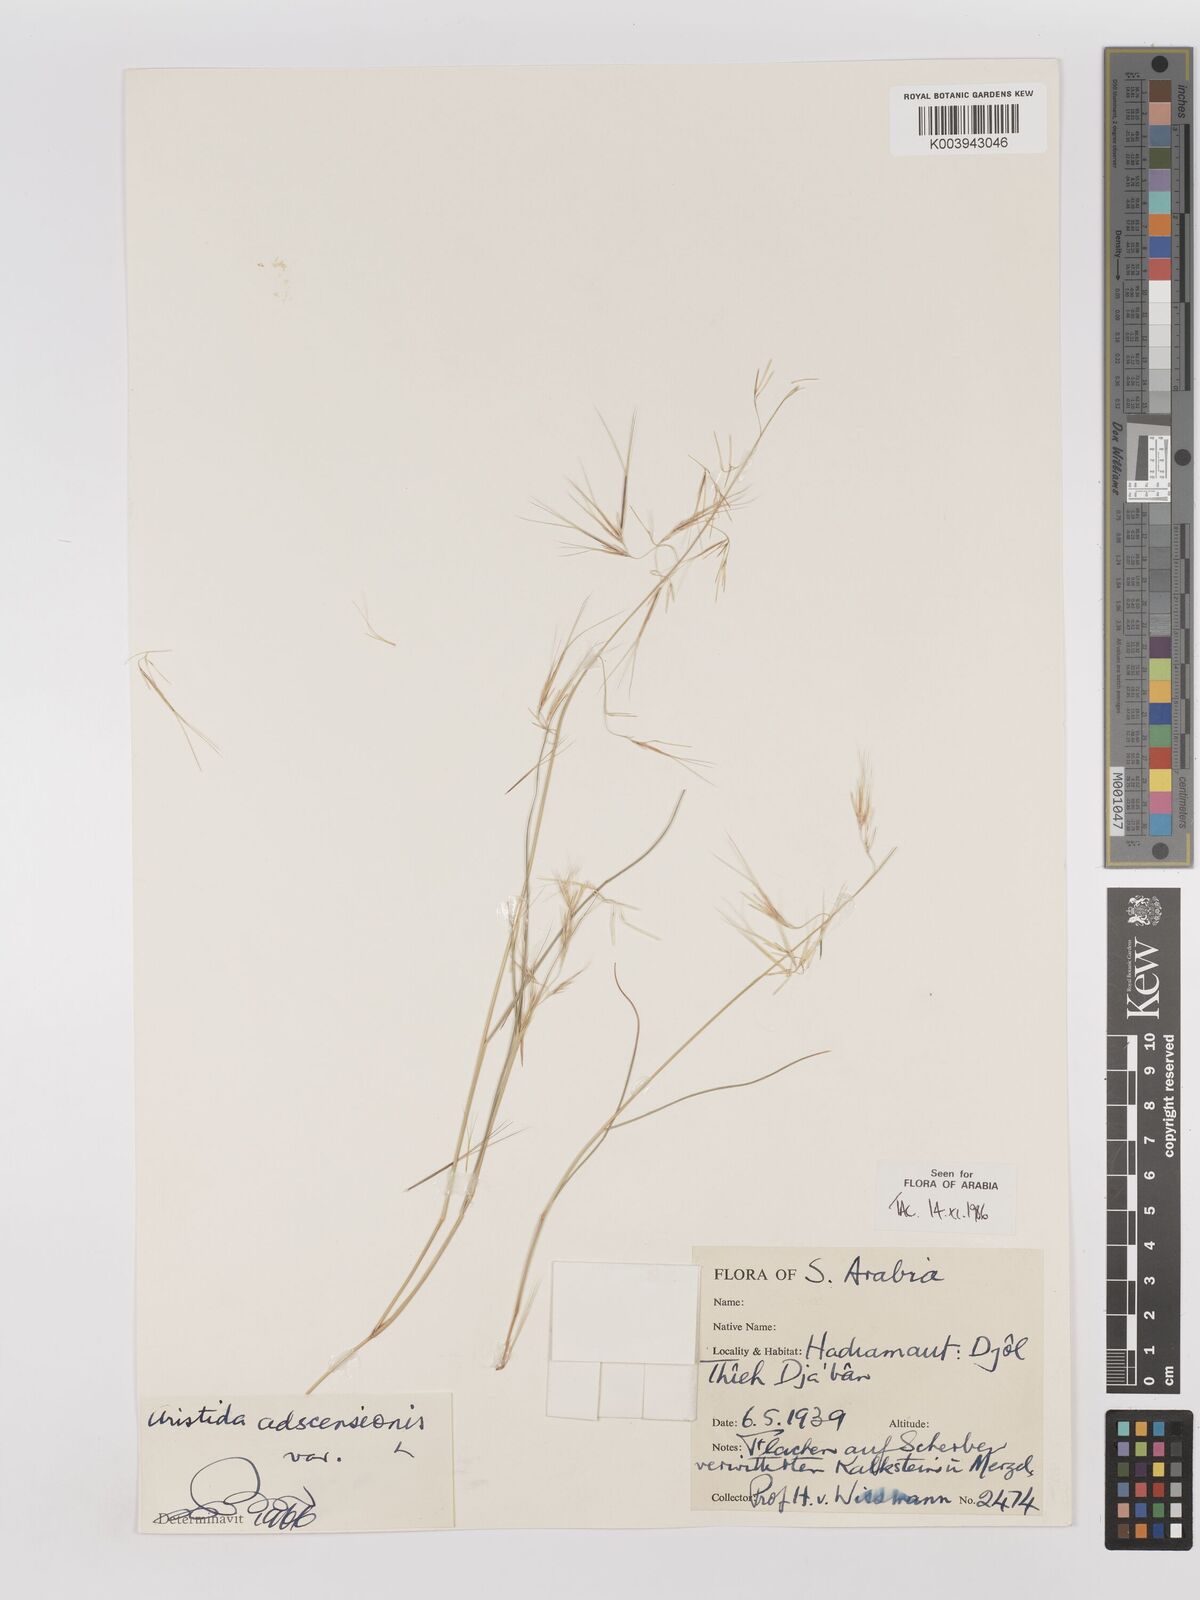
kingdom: Plantae
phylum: Tracheophyta
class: Liliopsida
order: Poales
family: Poaceae
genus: Aristida
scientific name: Aristida adscensionis
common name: Sixweeks threeawn
